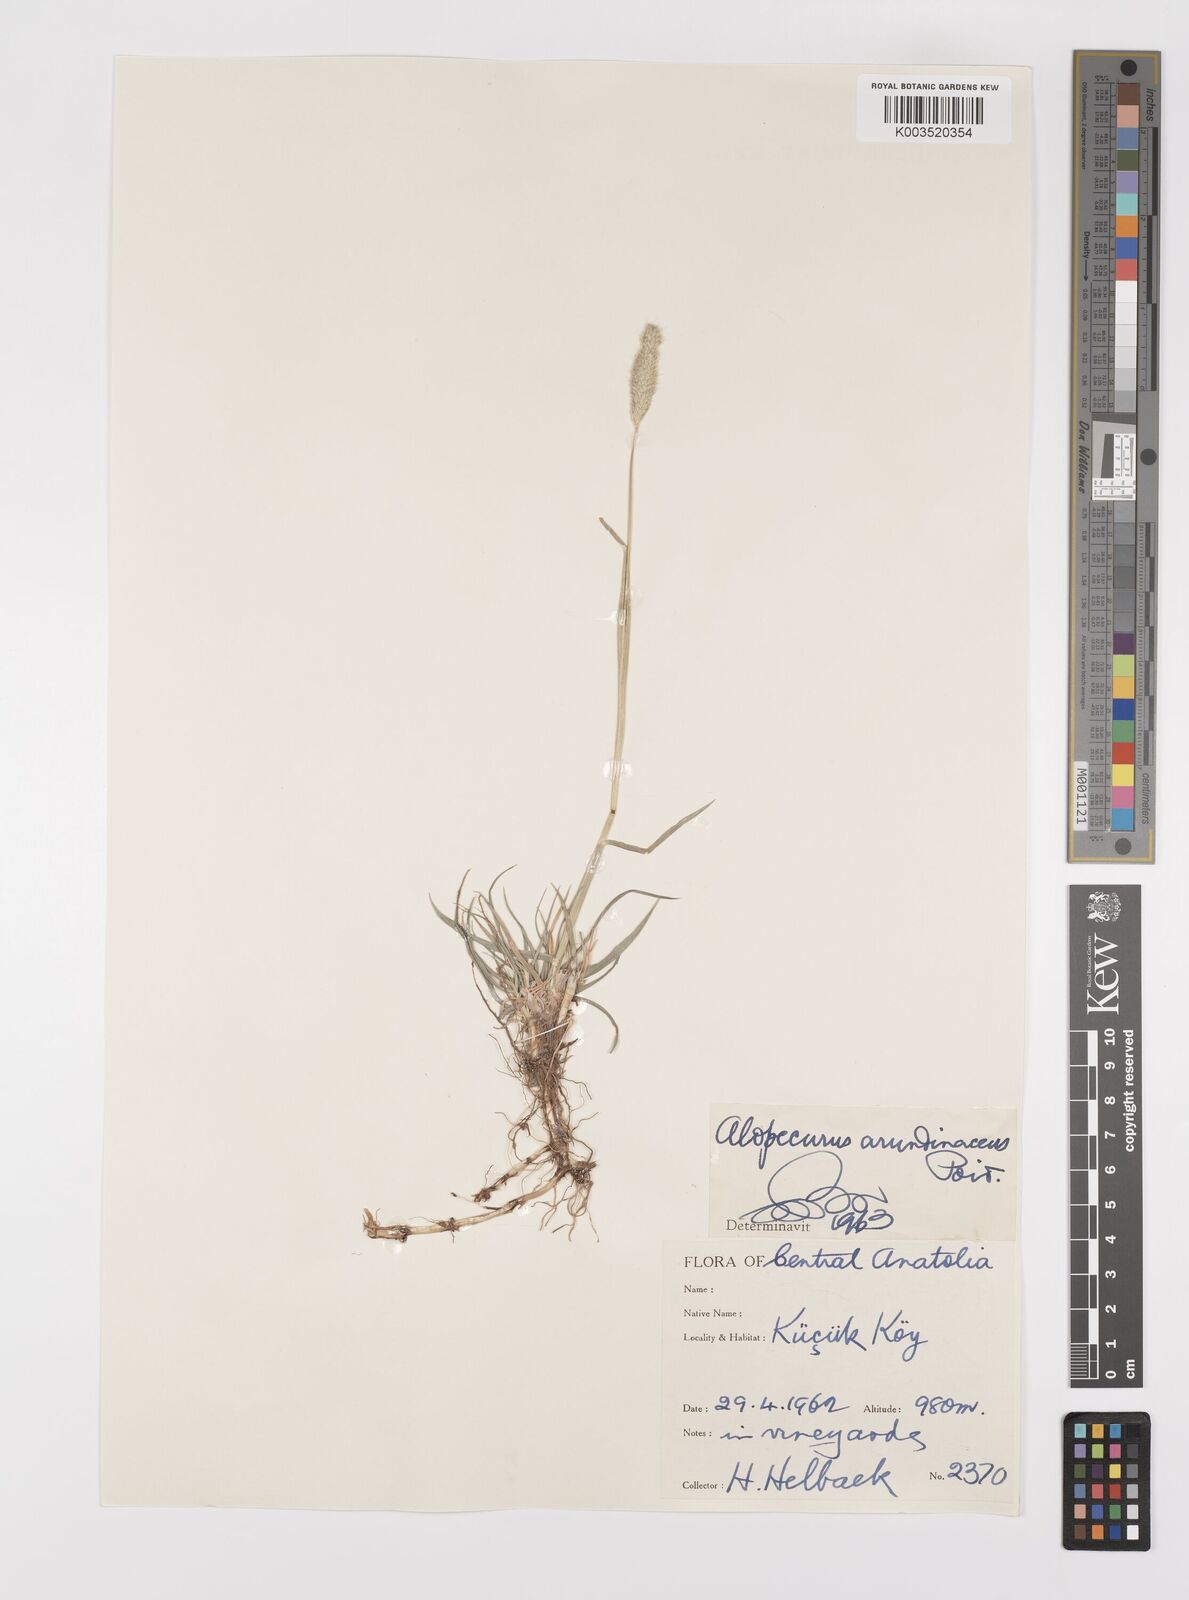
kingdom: Plantae
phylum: Tracheophyta
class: Liliopsida
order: Poales
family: Poaceae
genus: Alopecurus
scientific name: Alopecurus arundinaceus
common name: Creeping meadow foxtail
